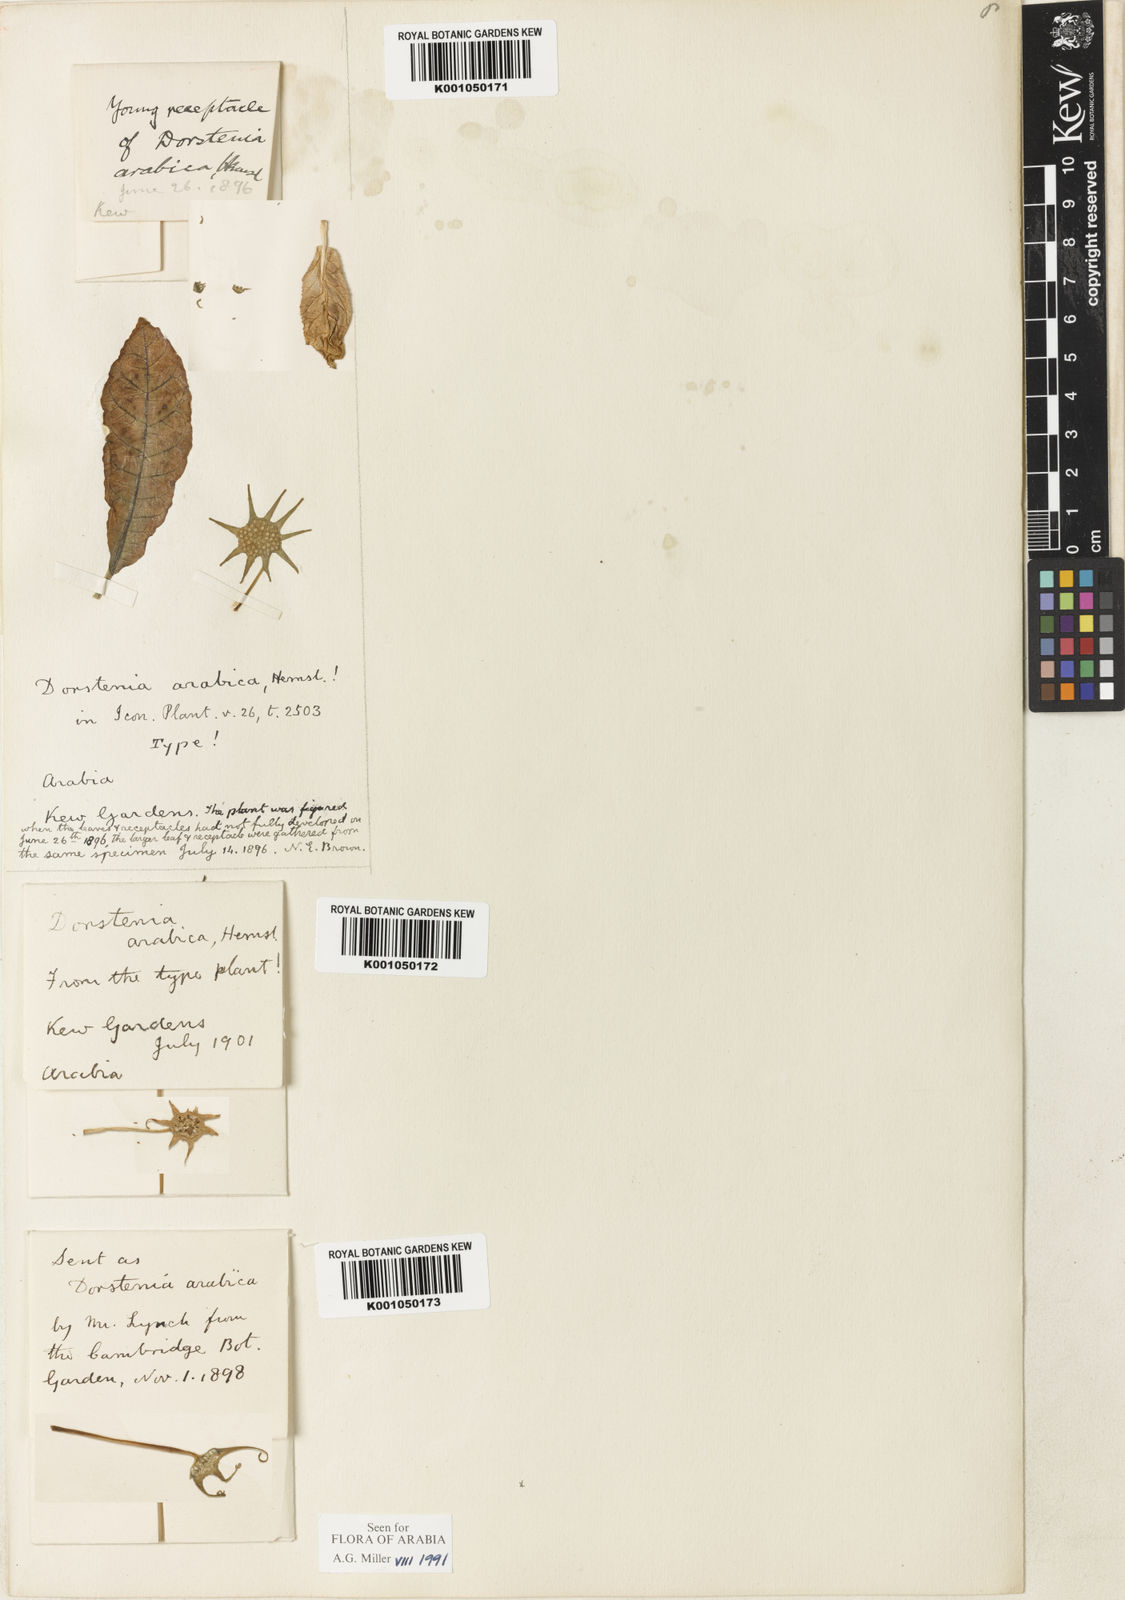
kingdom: Plantae
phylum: Tracheophyta
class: Magnoliopsida
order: Rosales
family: Moraceae
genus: Dorstenia
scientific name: Dorstenia foetida
